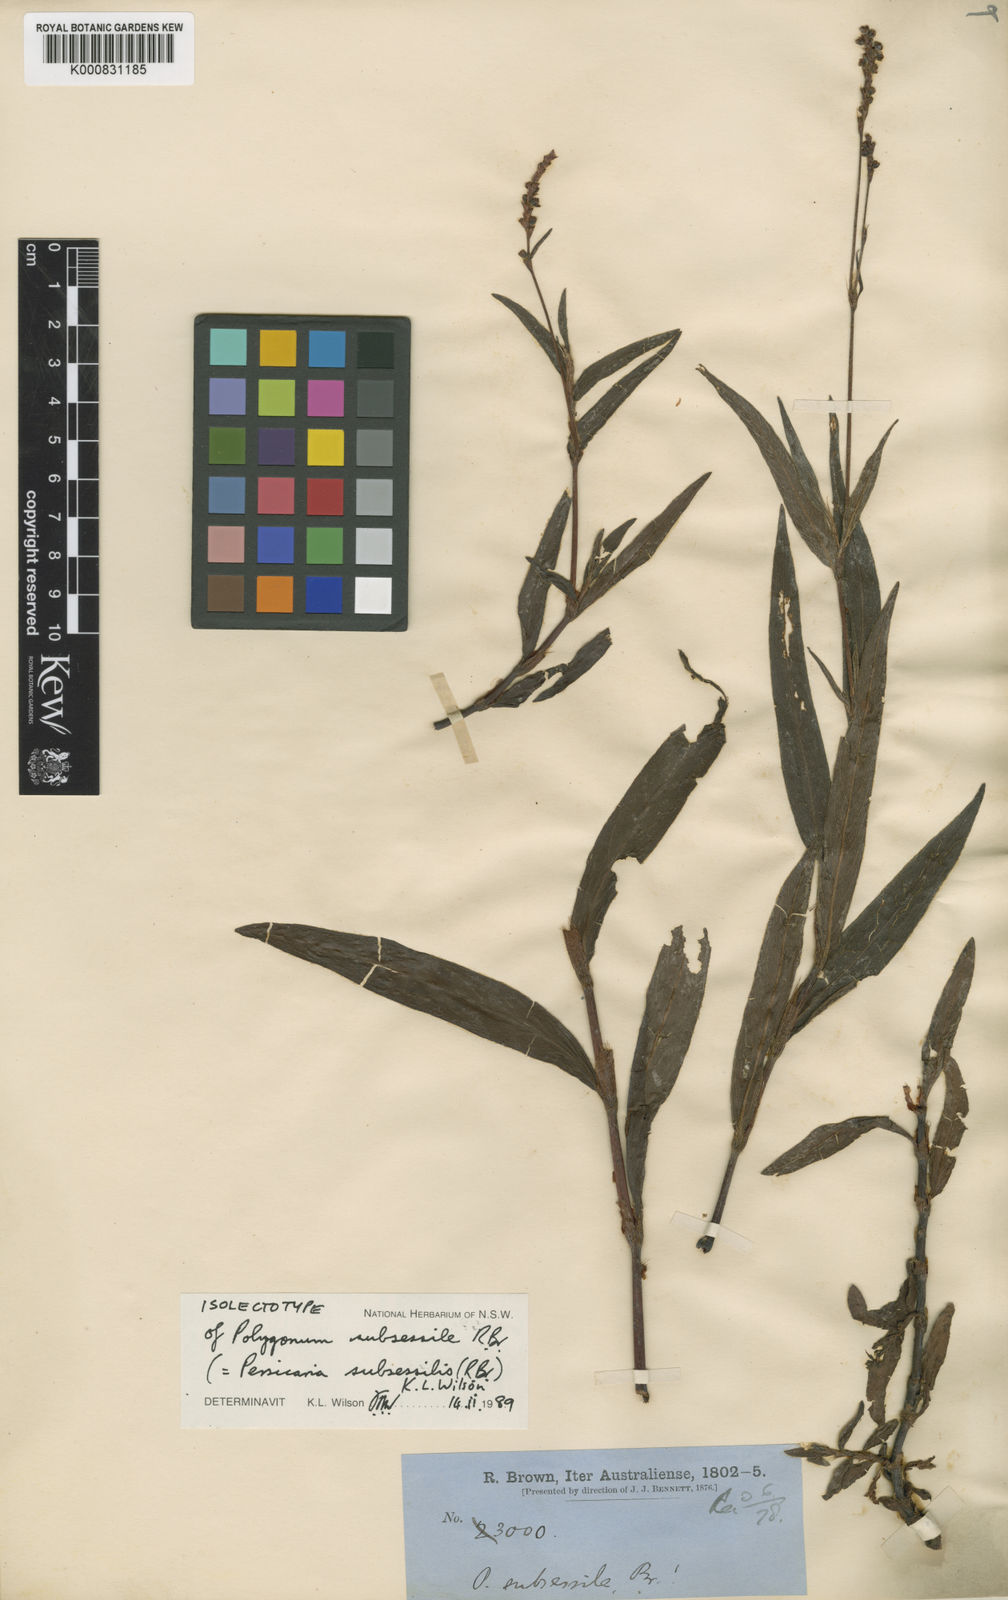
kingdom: Plantae
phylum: Tracheophyta
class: Magnoliopsida
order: Caryophyllales
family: Polygonaceae
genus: Persicaria
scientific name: Persicaria subsessilis
